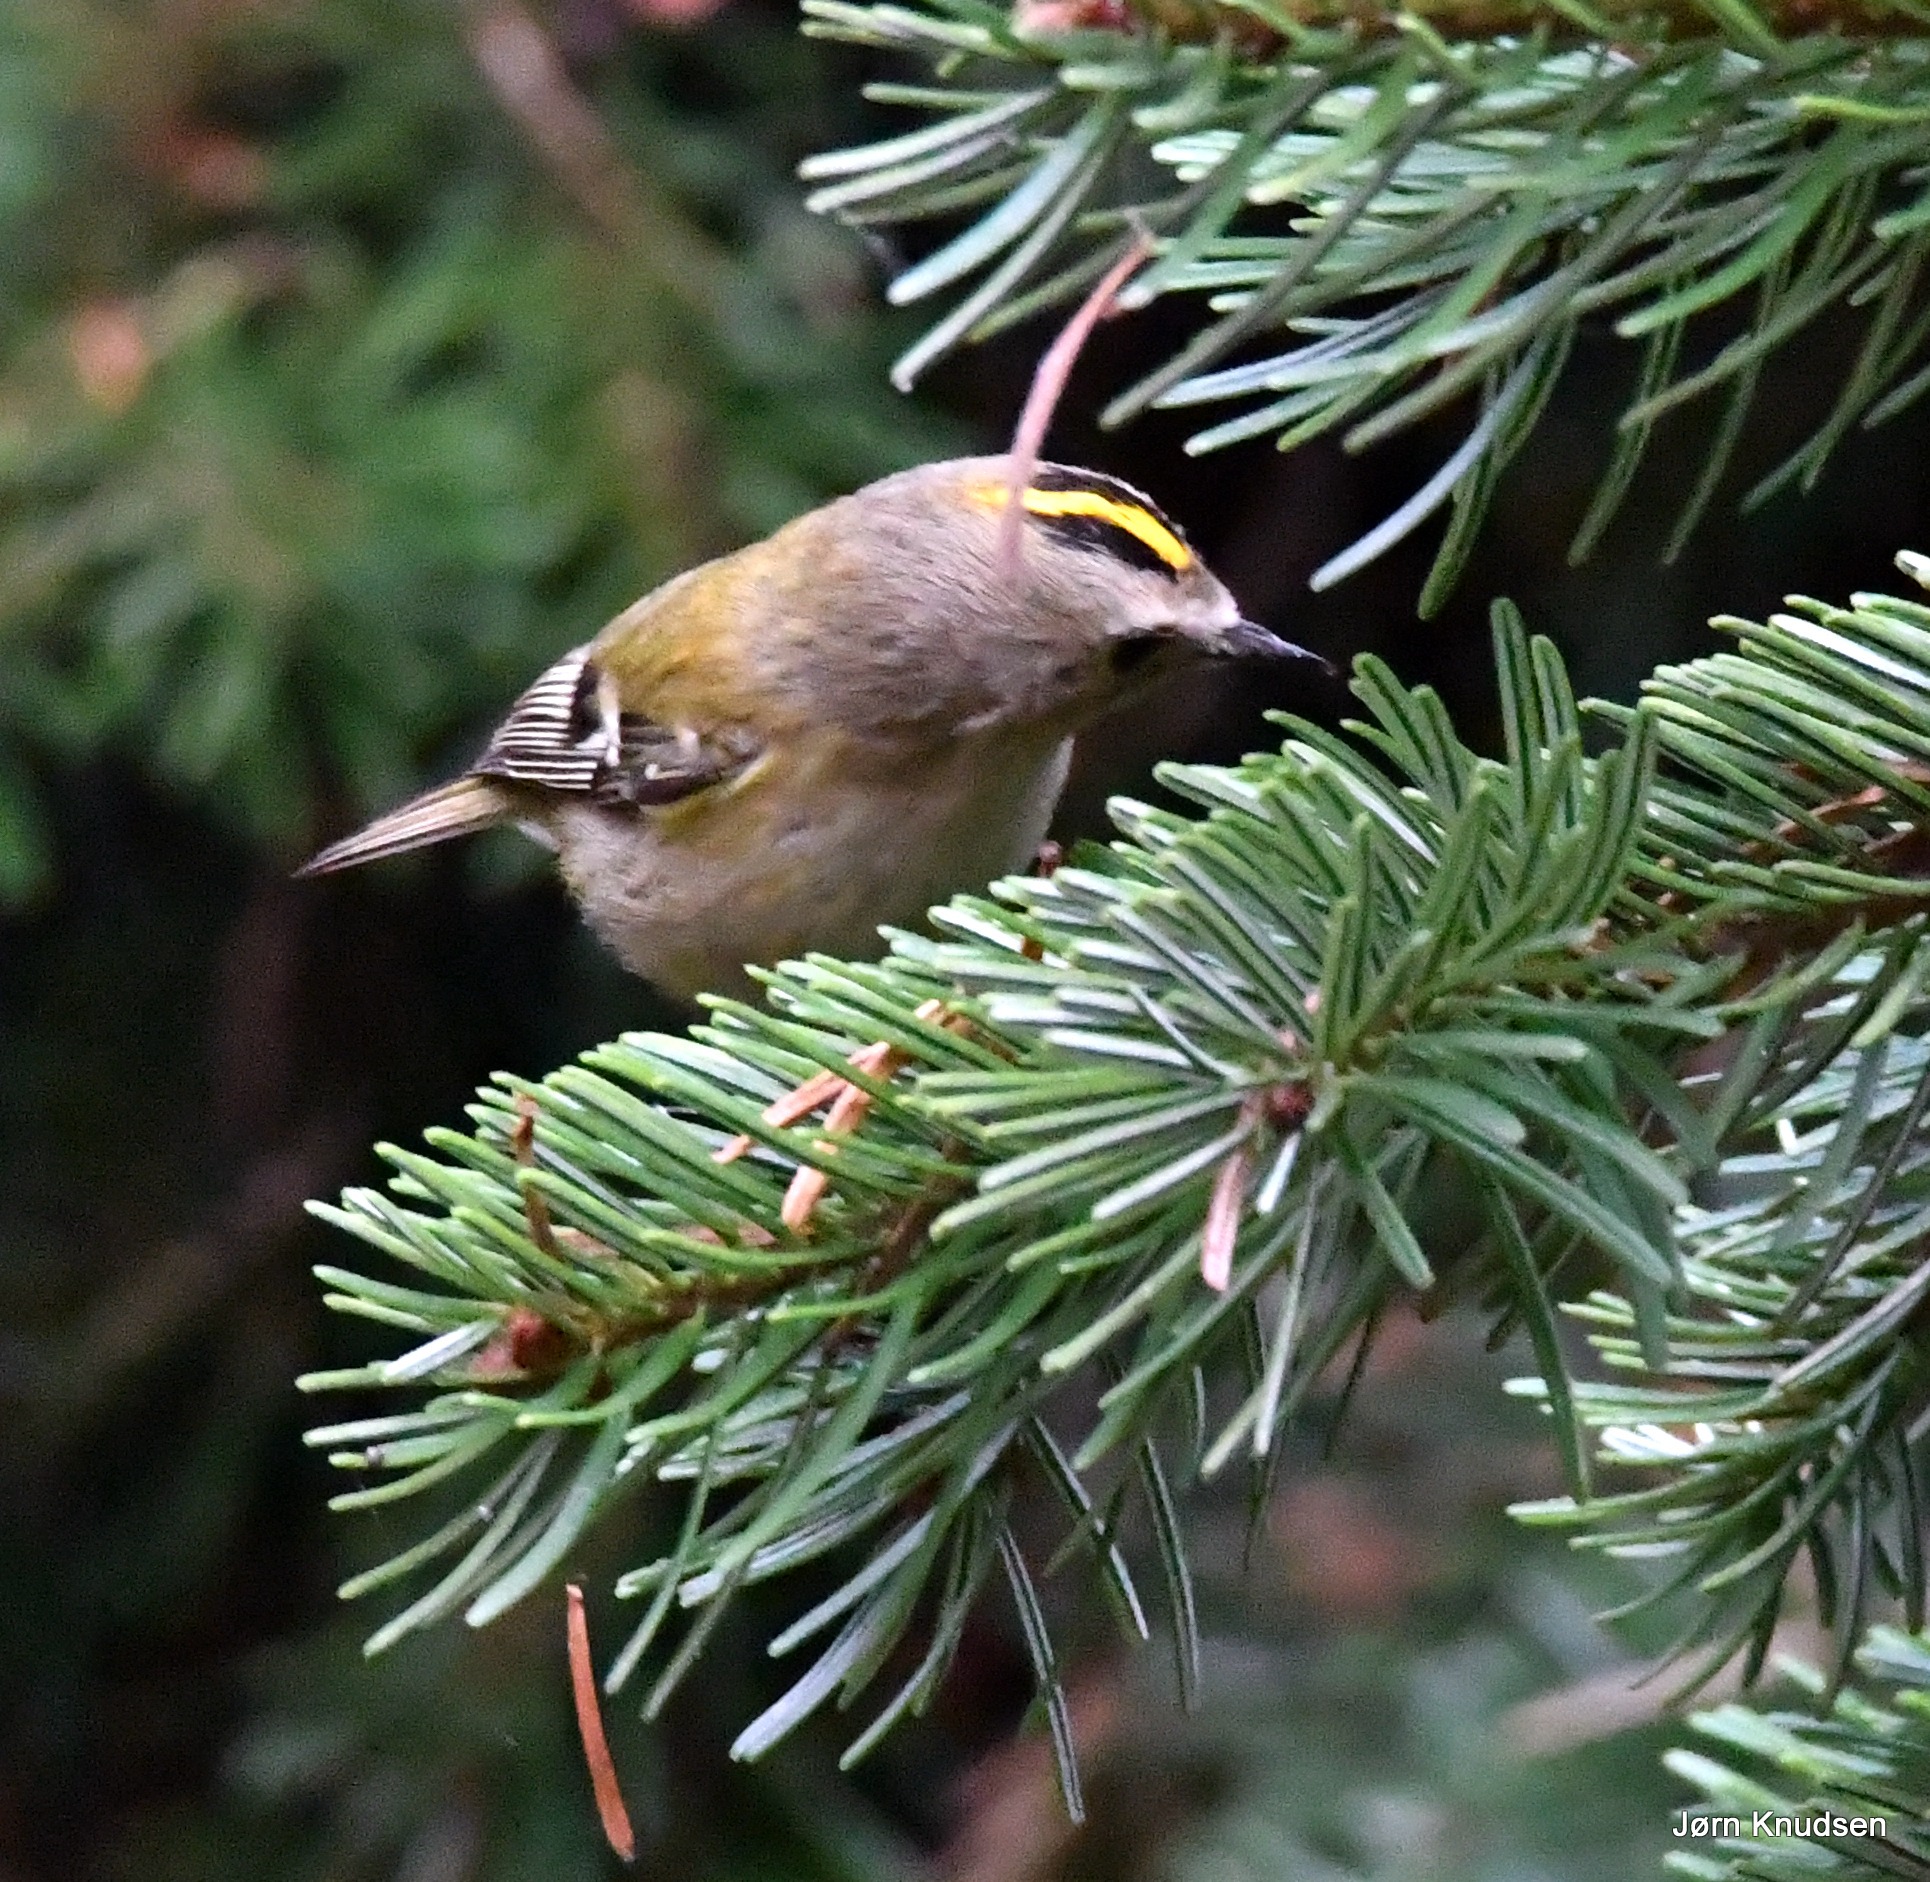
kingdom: Animalia
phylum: Chordata
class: Aves
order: Passeriformes
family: Regulidae
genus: Regulus
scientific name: Regulus regulus
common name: Fuglekonge
